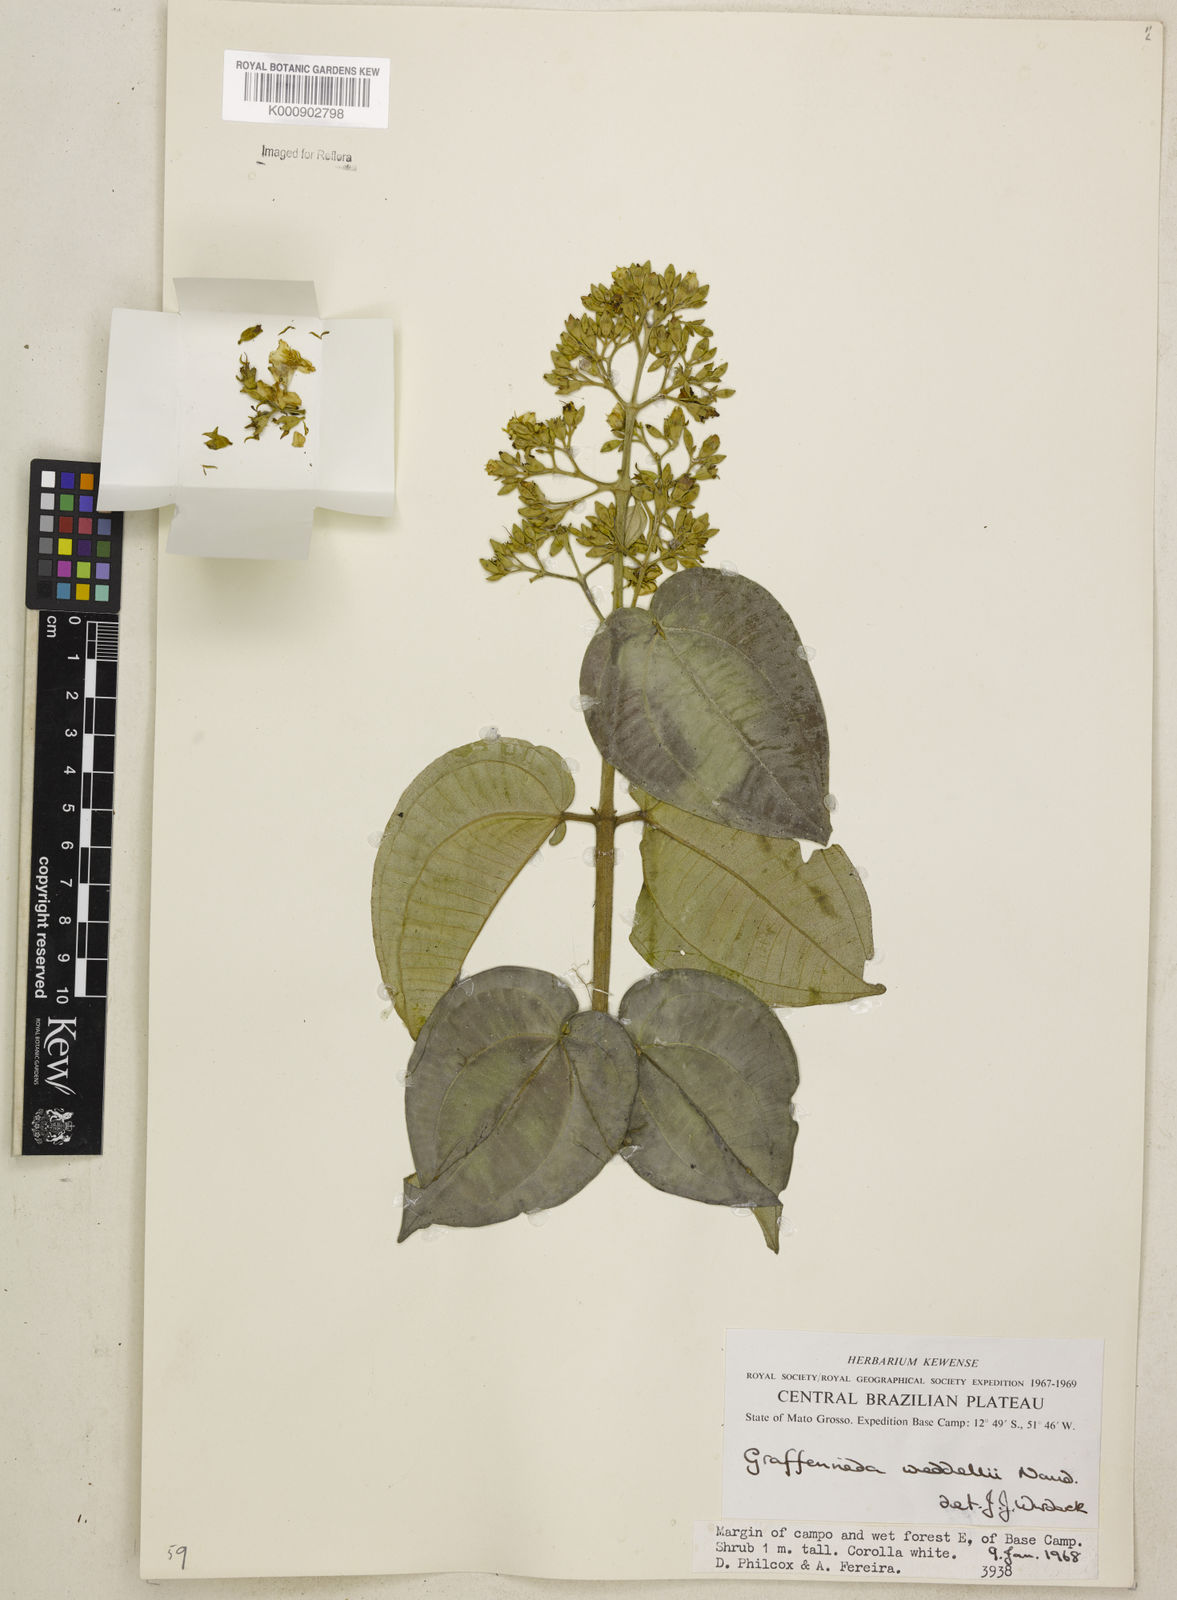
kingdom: Plantae
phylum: Tracheophyta
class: Magnoliopsida
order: Myrtales
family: Melastomataceae
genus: Graffenrieda
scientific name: Graffenrieda weddellii
